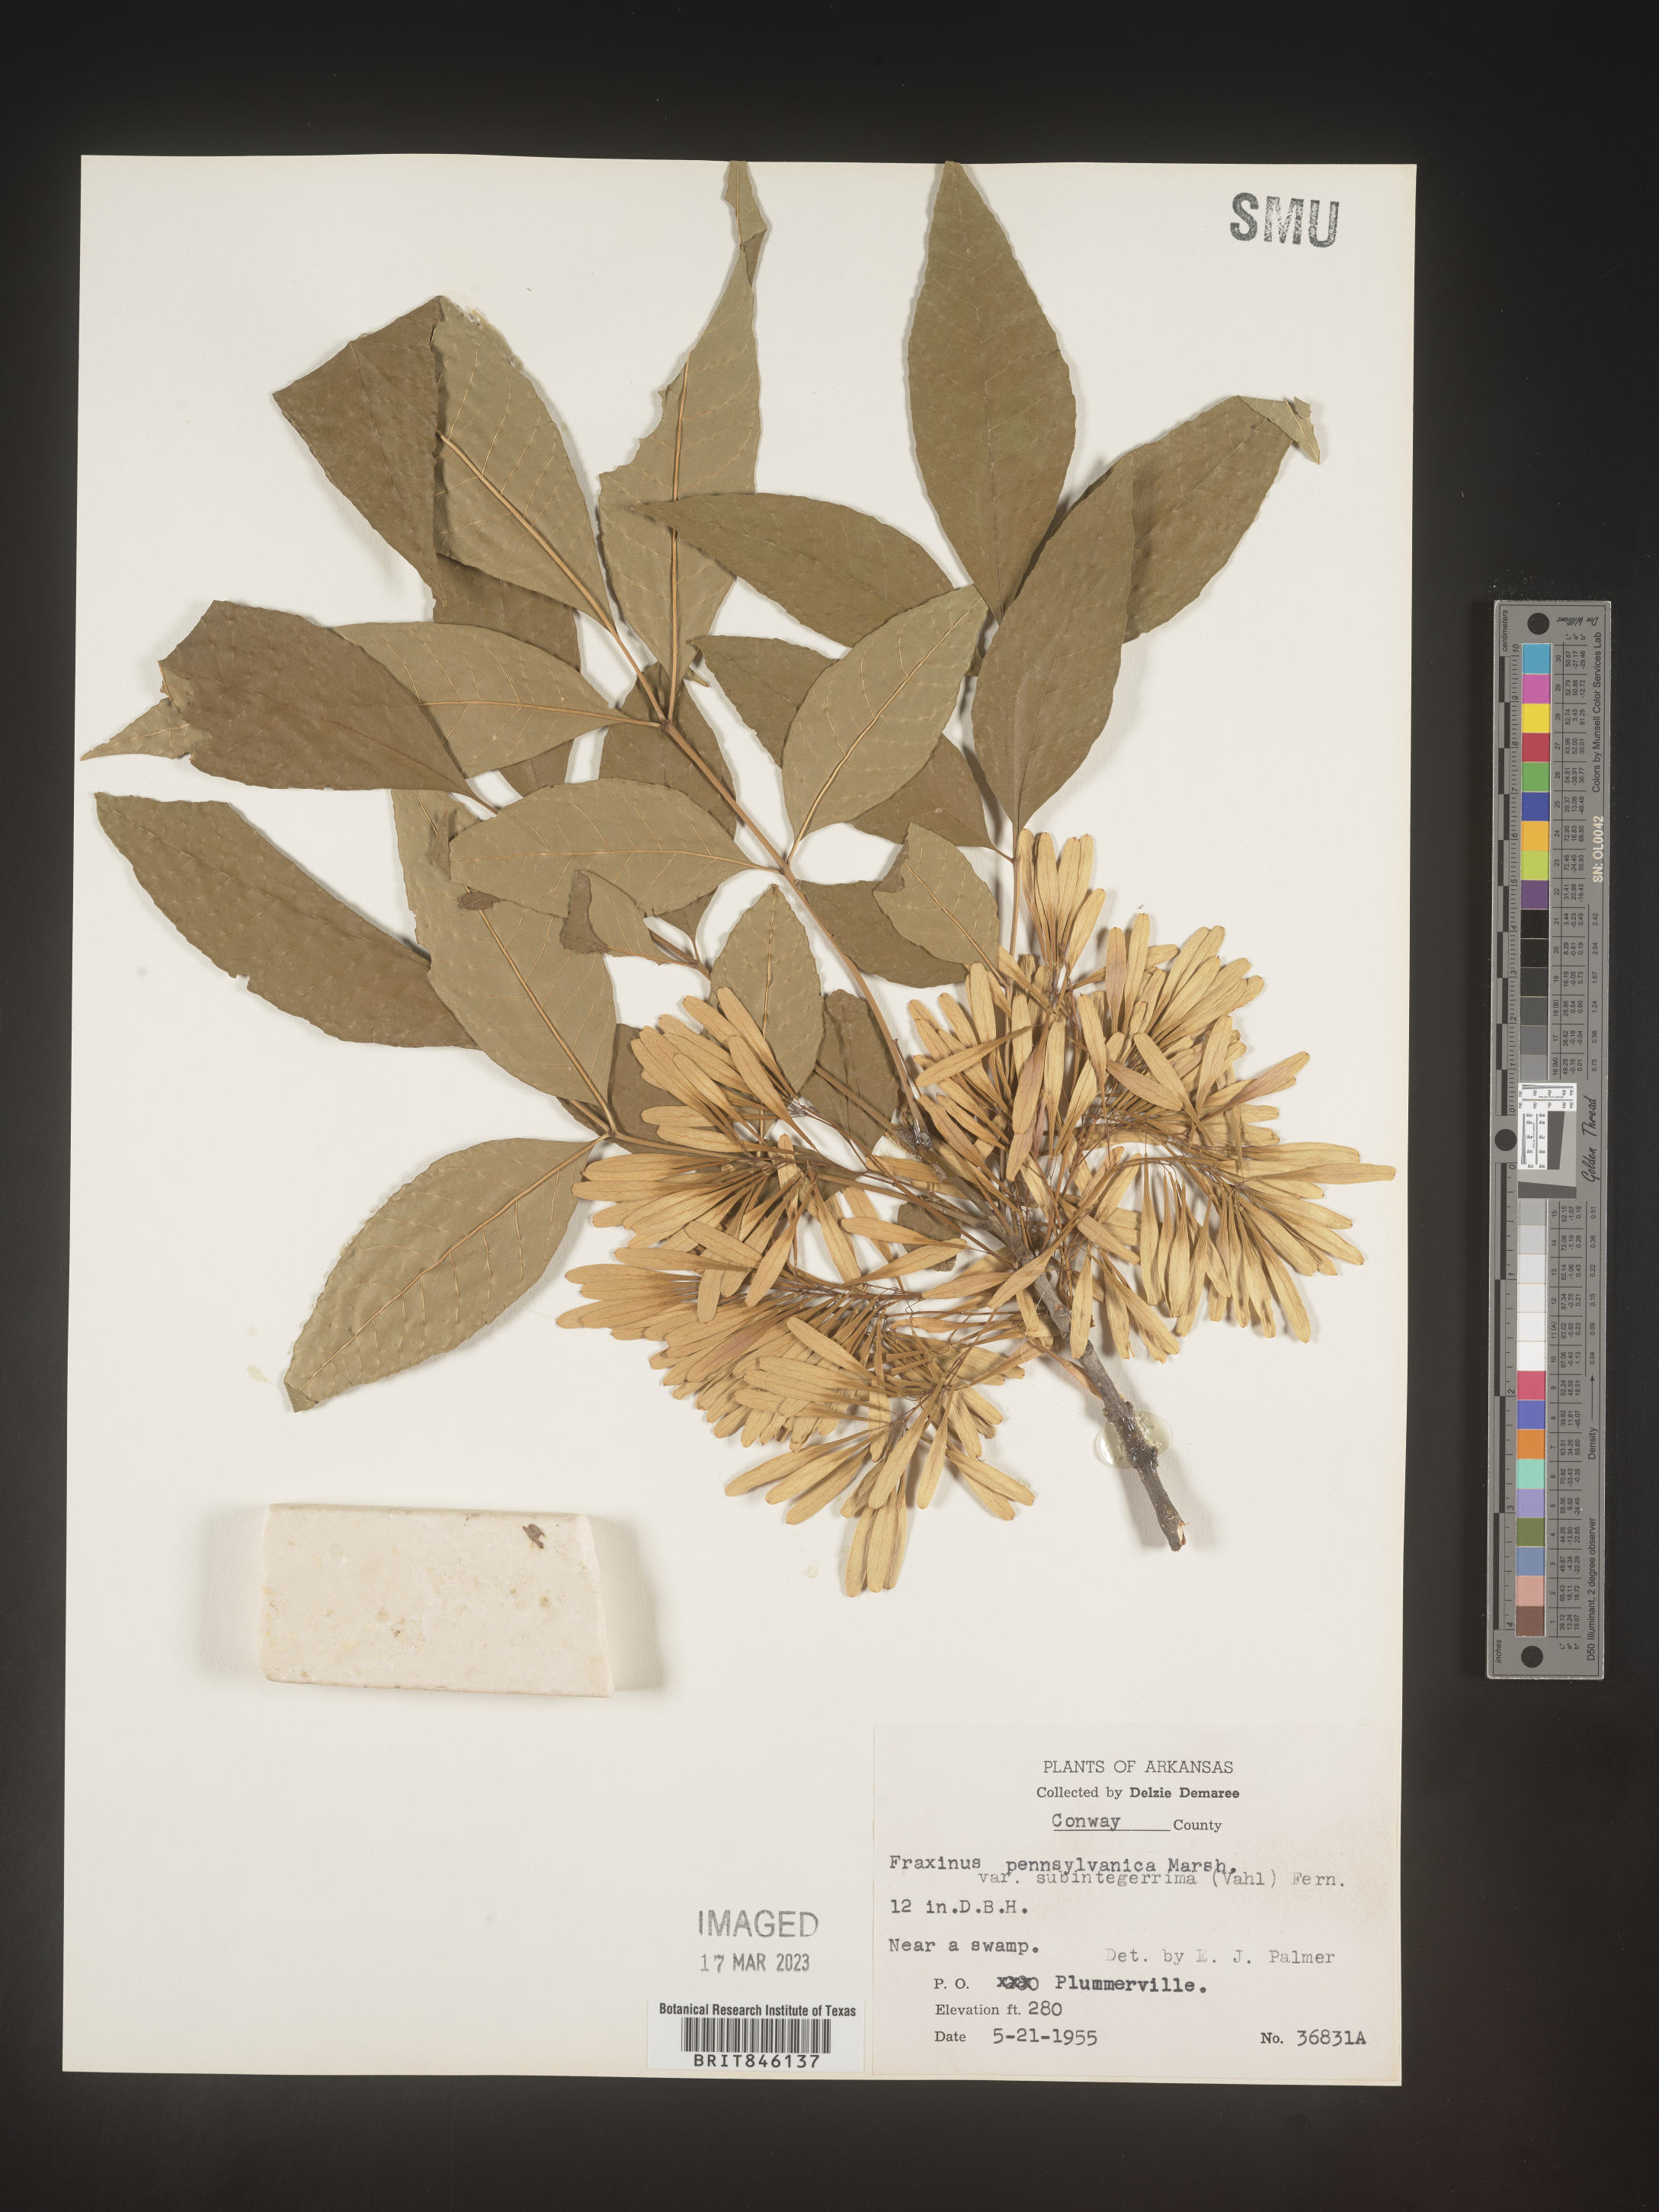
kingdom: Plantae
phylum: Tracheophyta
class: Magnoliopsida
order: Lamiales
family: Oleaceae
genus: Fraxinus
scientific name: Fraxinus pennsylvanica
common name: Green ash
